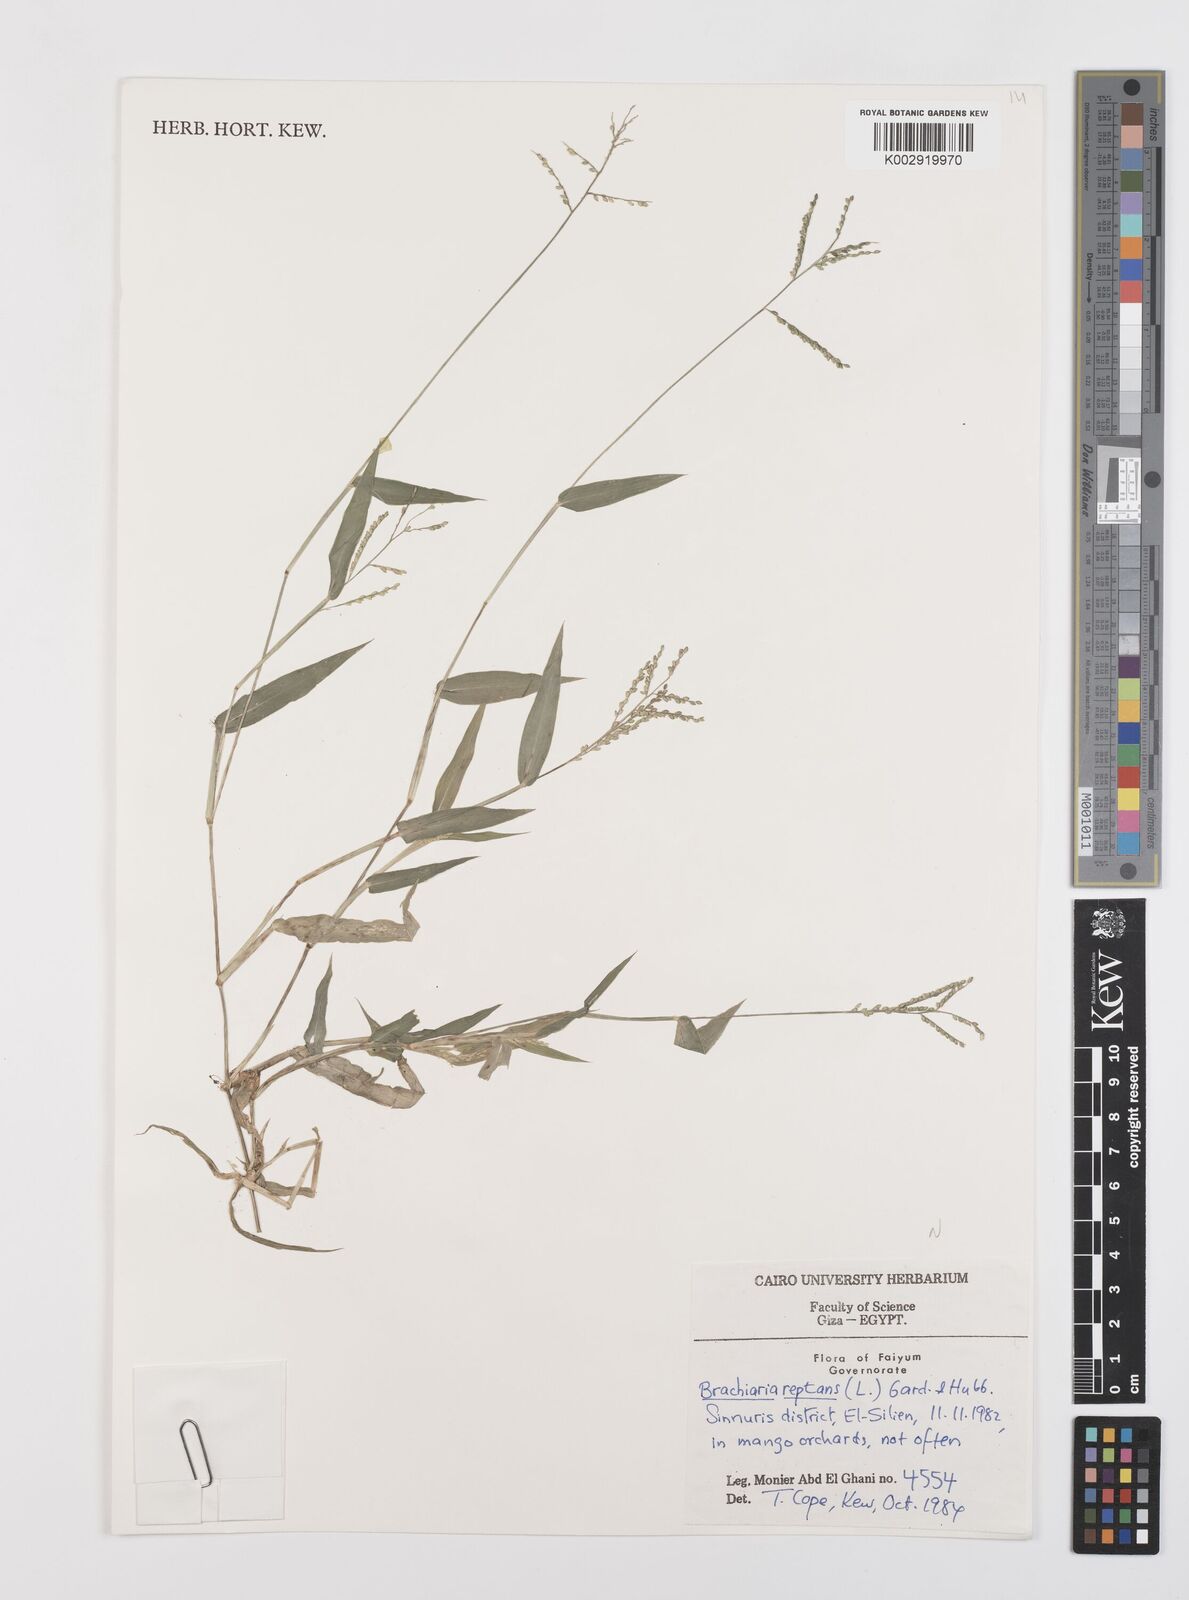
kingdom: Plantae
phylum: Tracheophyta
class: Liliopsida
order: Poales
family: Poaceae
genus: Urochloa
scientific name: Urochloa reptans
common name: Sprawling signalgrass
